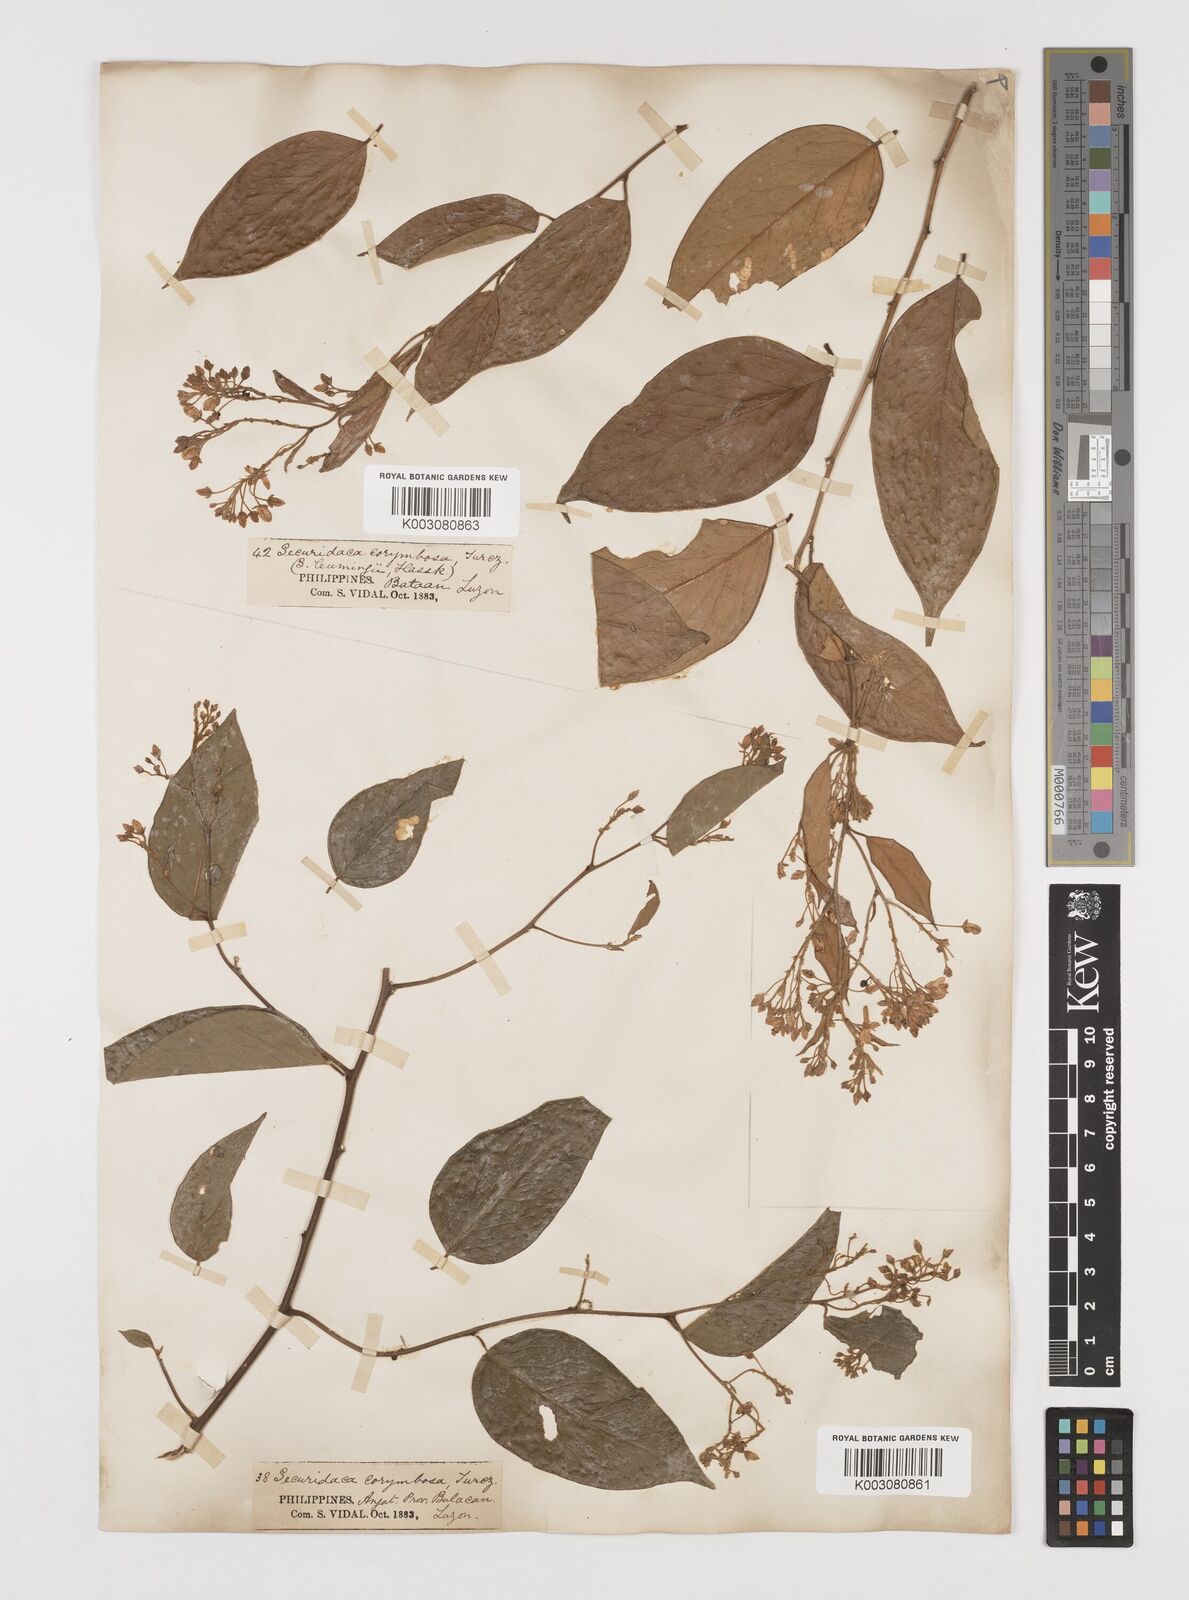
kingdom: Plantae
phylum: Tracheophyta
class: Magnoliopsida
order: Fabales
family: Polygalaceae
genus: Securidaca
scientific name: Securidaca inappendiculata
